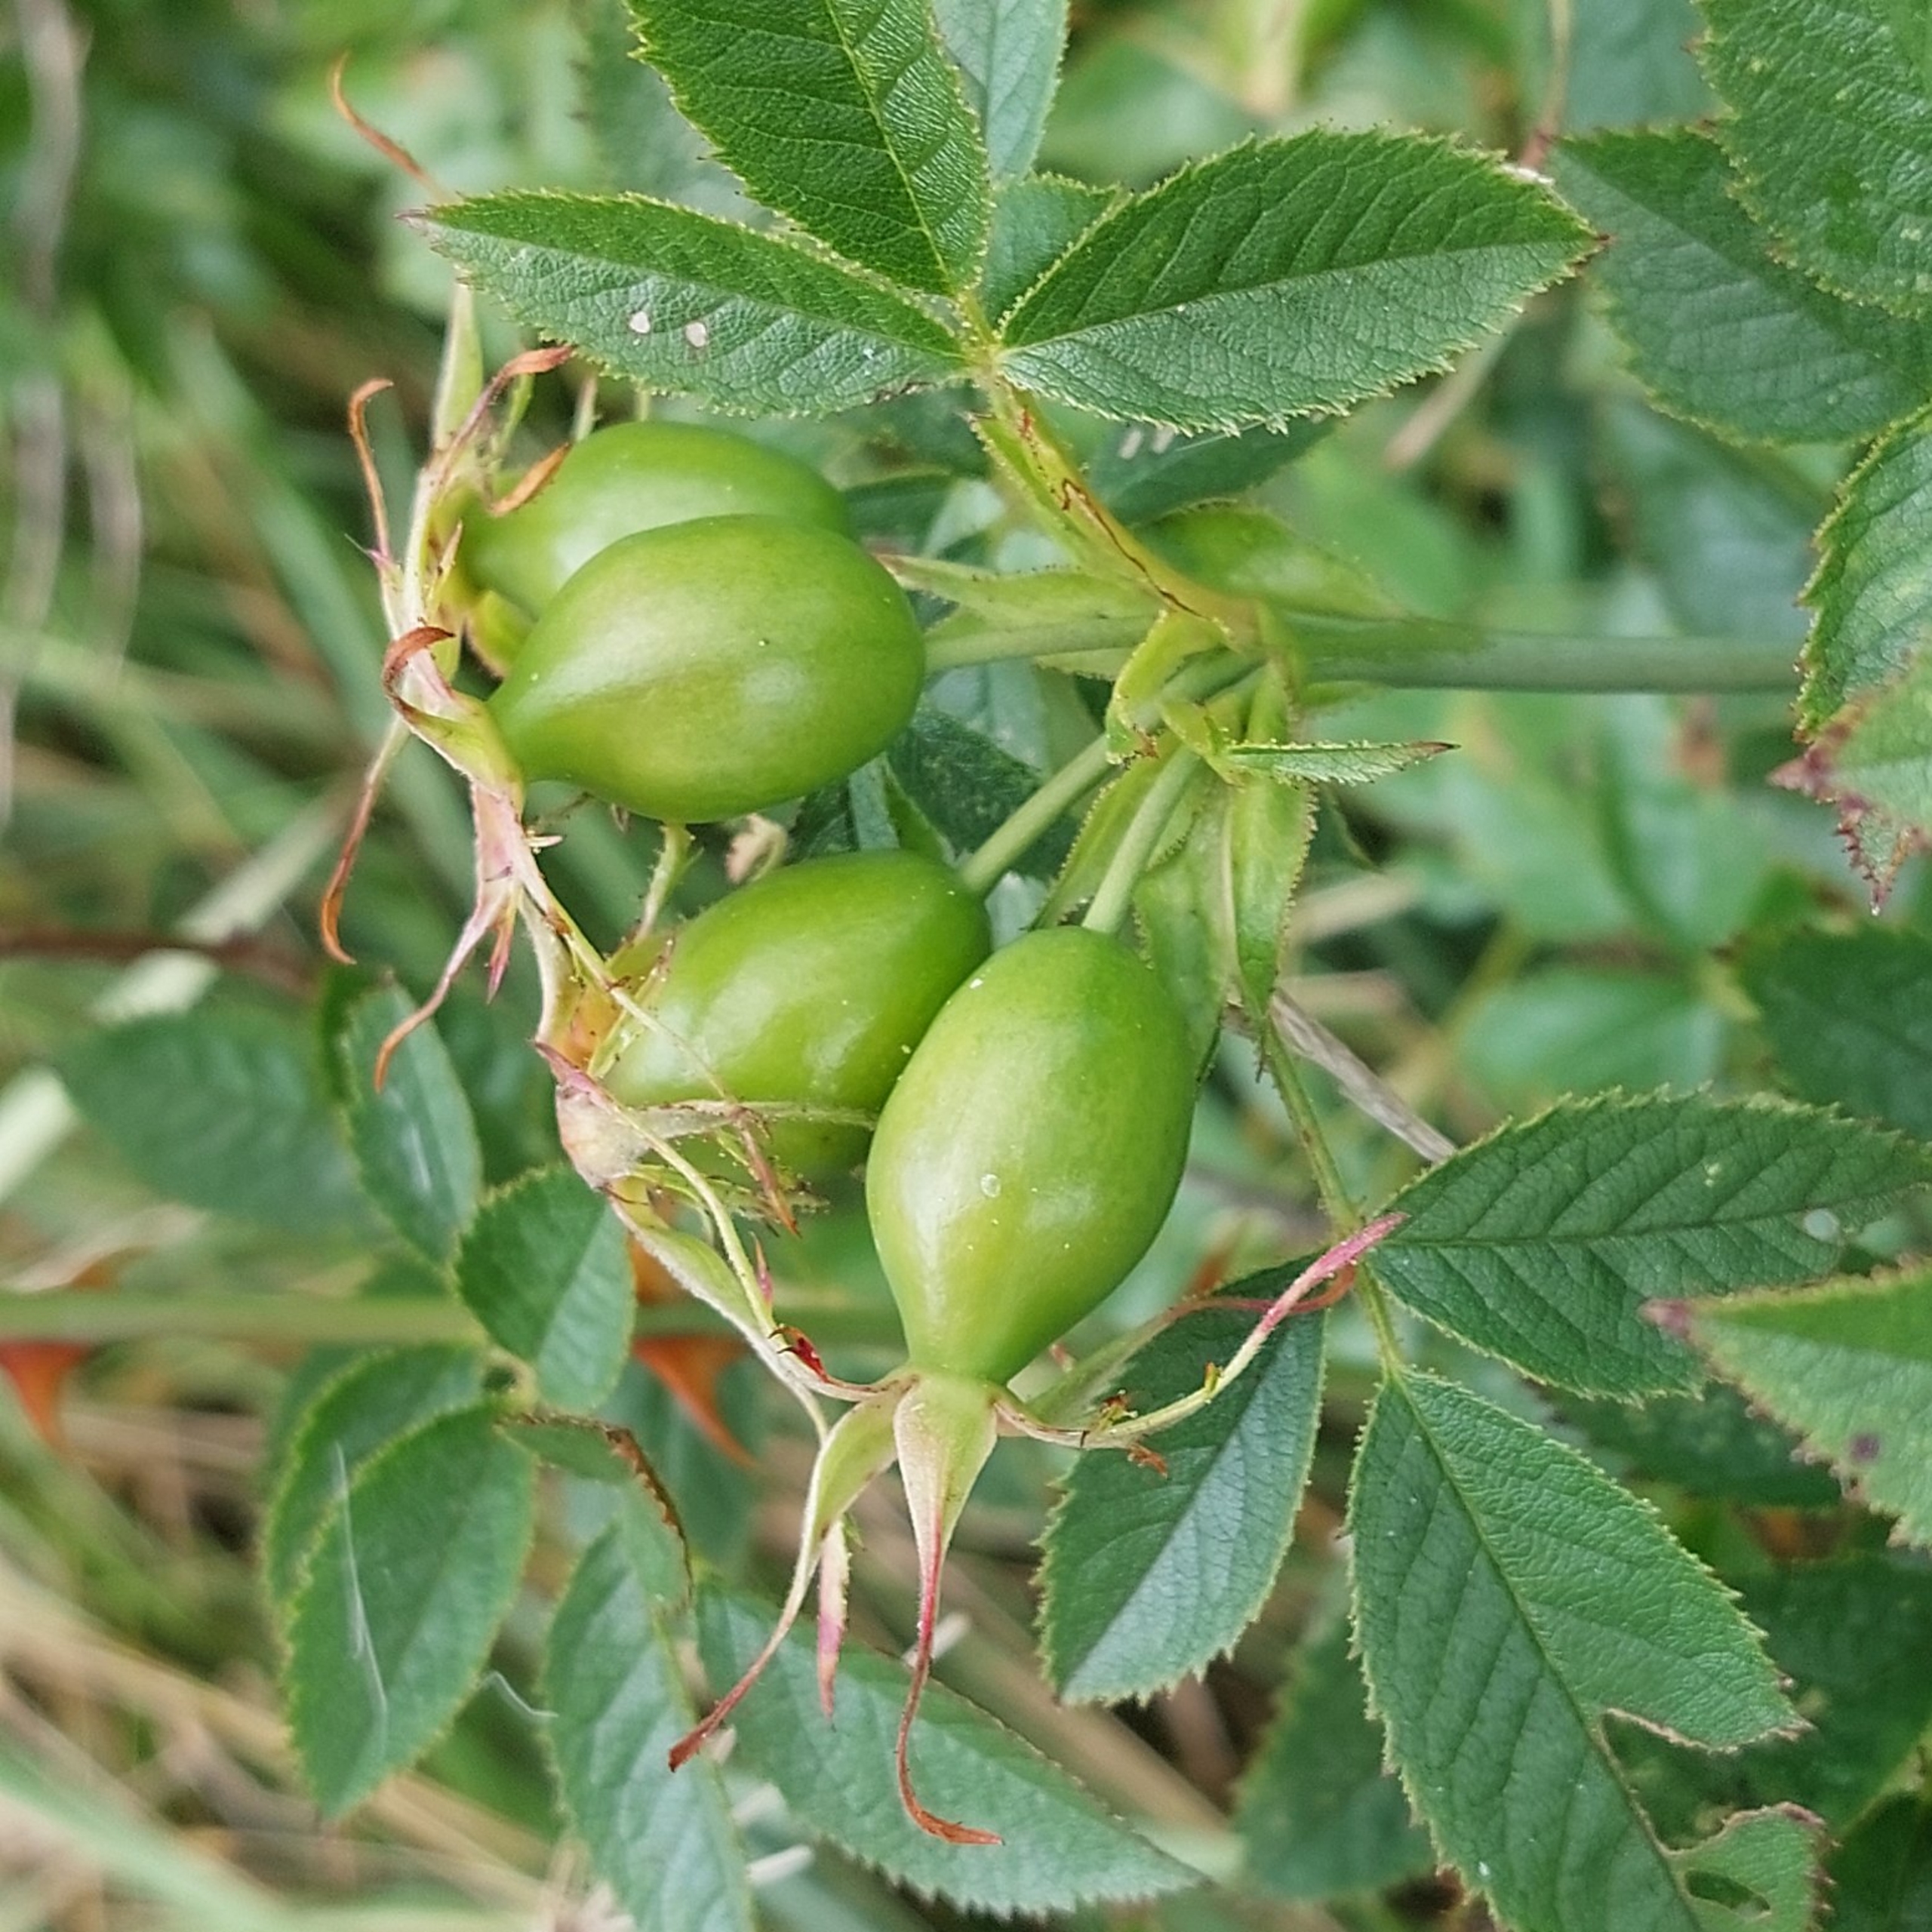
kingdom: Plantae
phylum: Tracheophyta
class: Magnoliopsida
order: Rosales
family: Rosaceae
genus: Rosa
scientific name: Rosa inodora
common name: Lugtløs æble-rose
